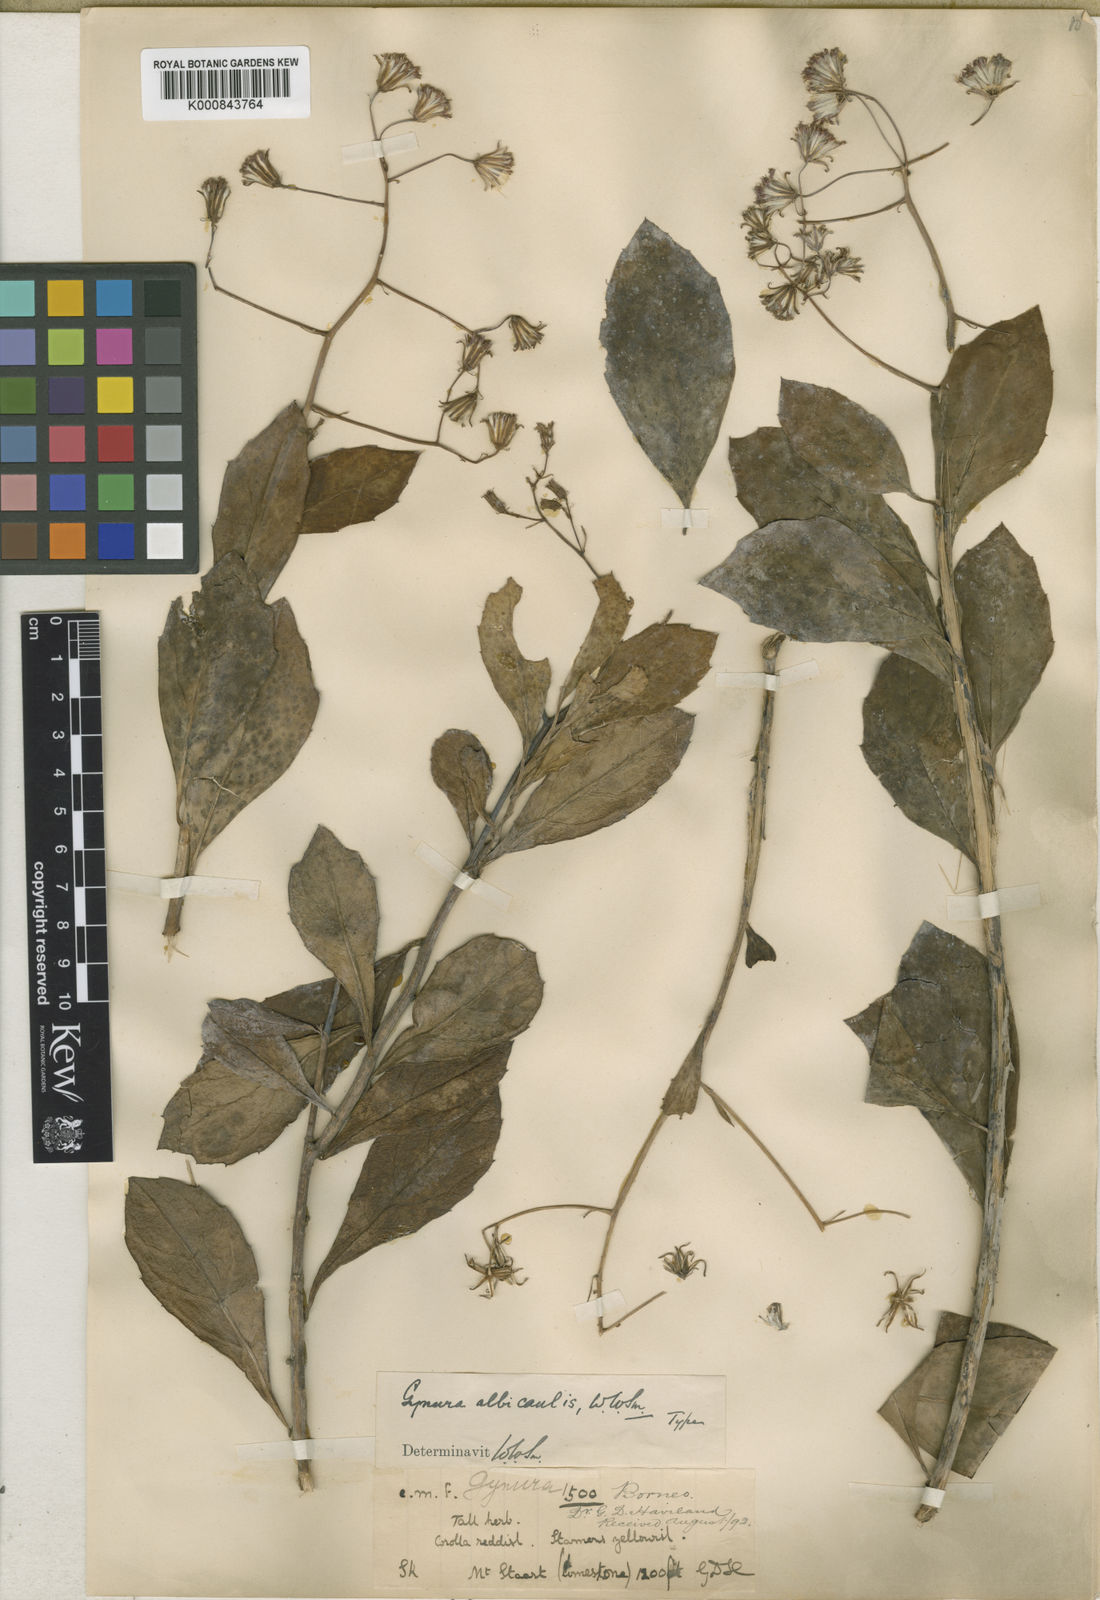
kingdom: Plantae
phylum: Tracheophyta
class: Magnoliopsida
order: Asterales
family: Asteraceae
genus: Gynura
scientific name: Gynura albicaulis
